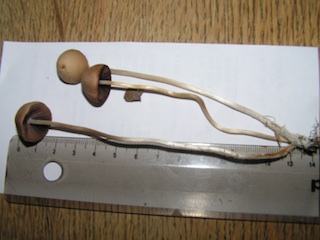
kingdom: Fungi
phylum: Basidiomycota
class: Agaricomycetes
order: Agaricales
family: Psathyrellaceae
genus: Psathyrella
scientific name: Psathyrella corrugis
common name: rødægget mørkhat
